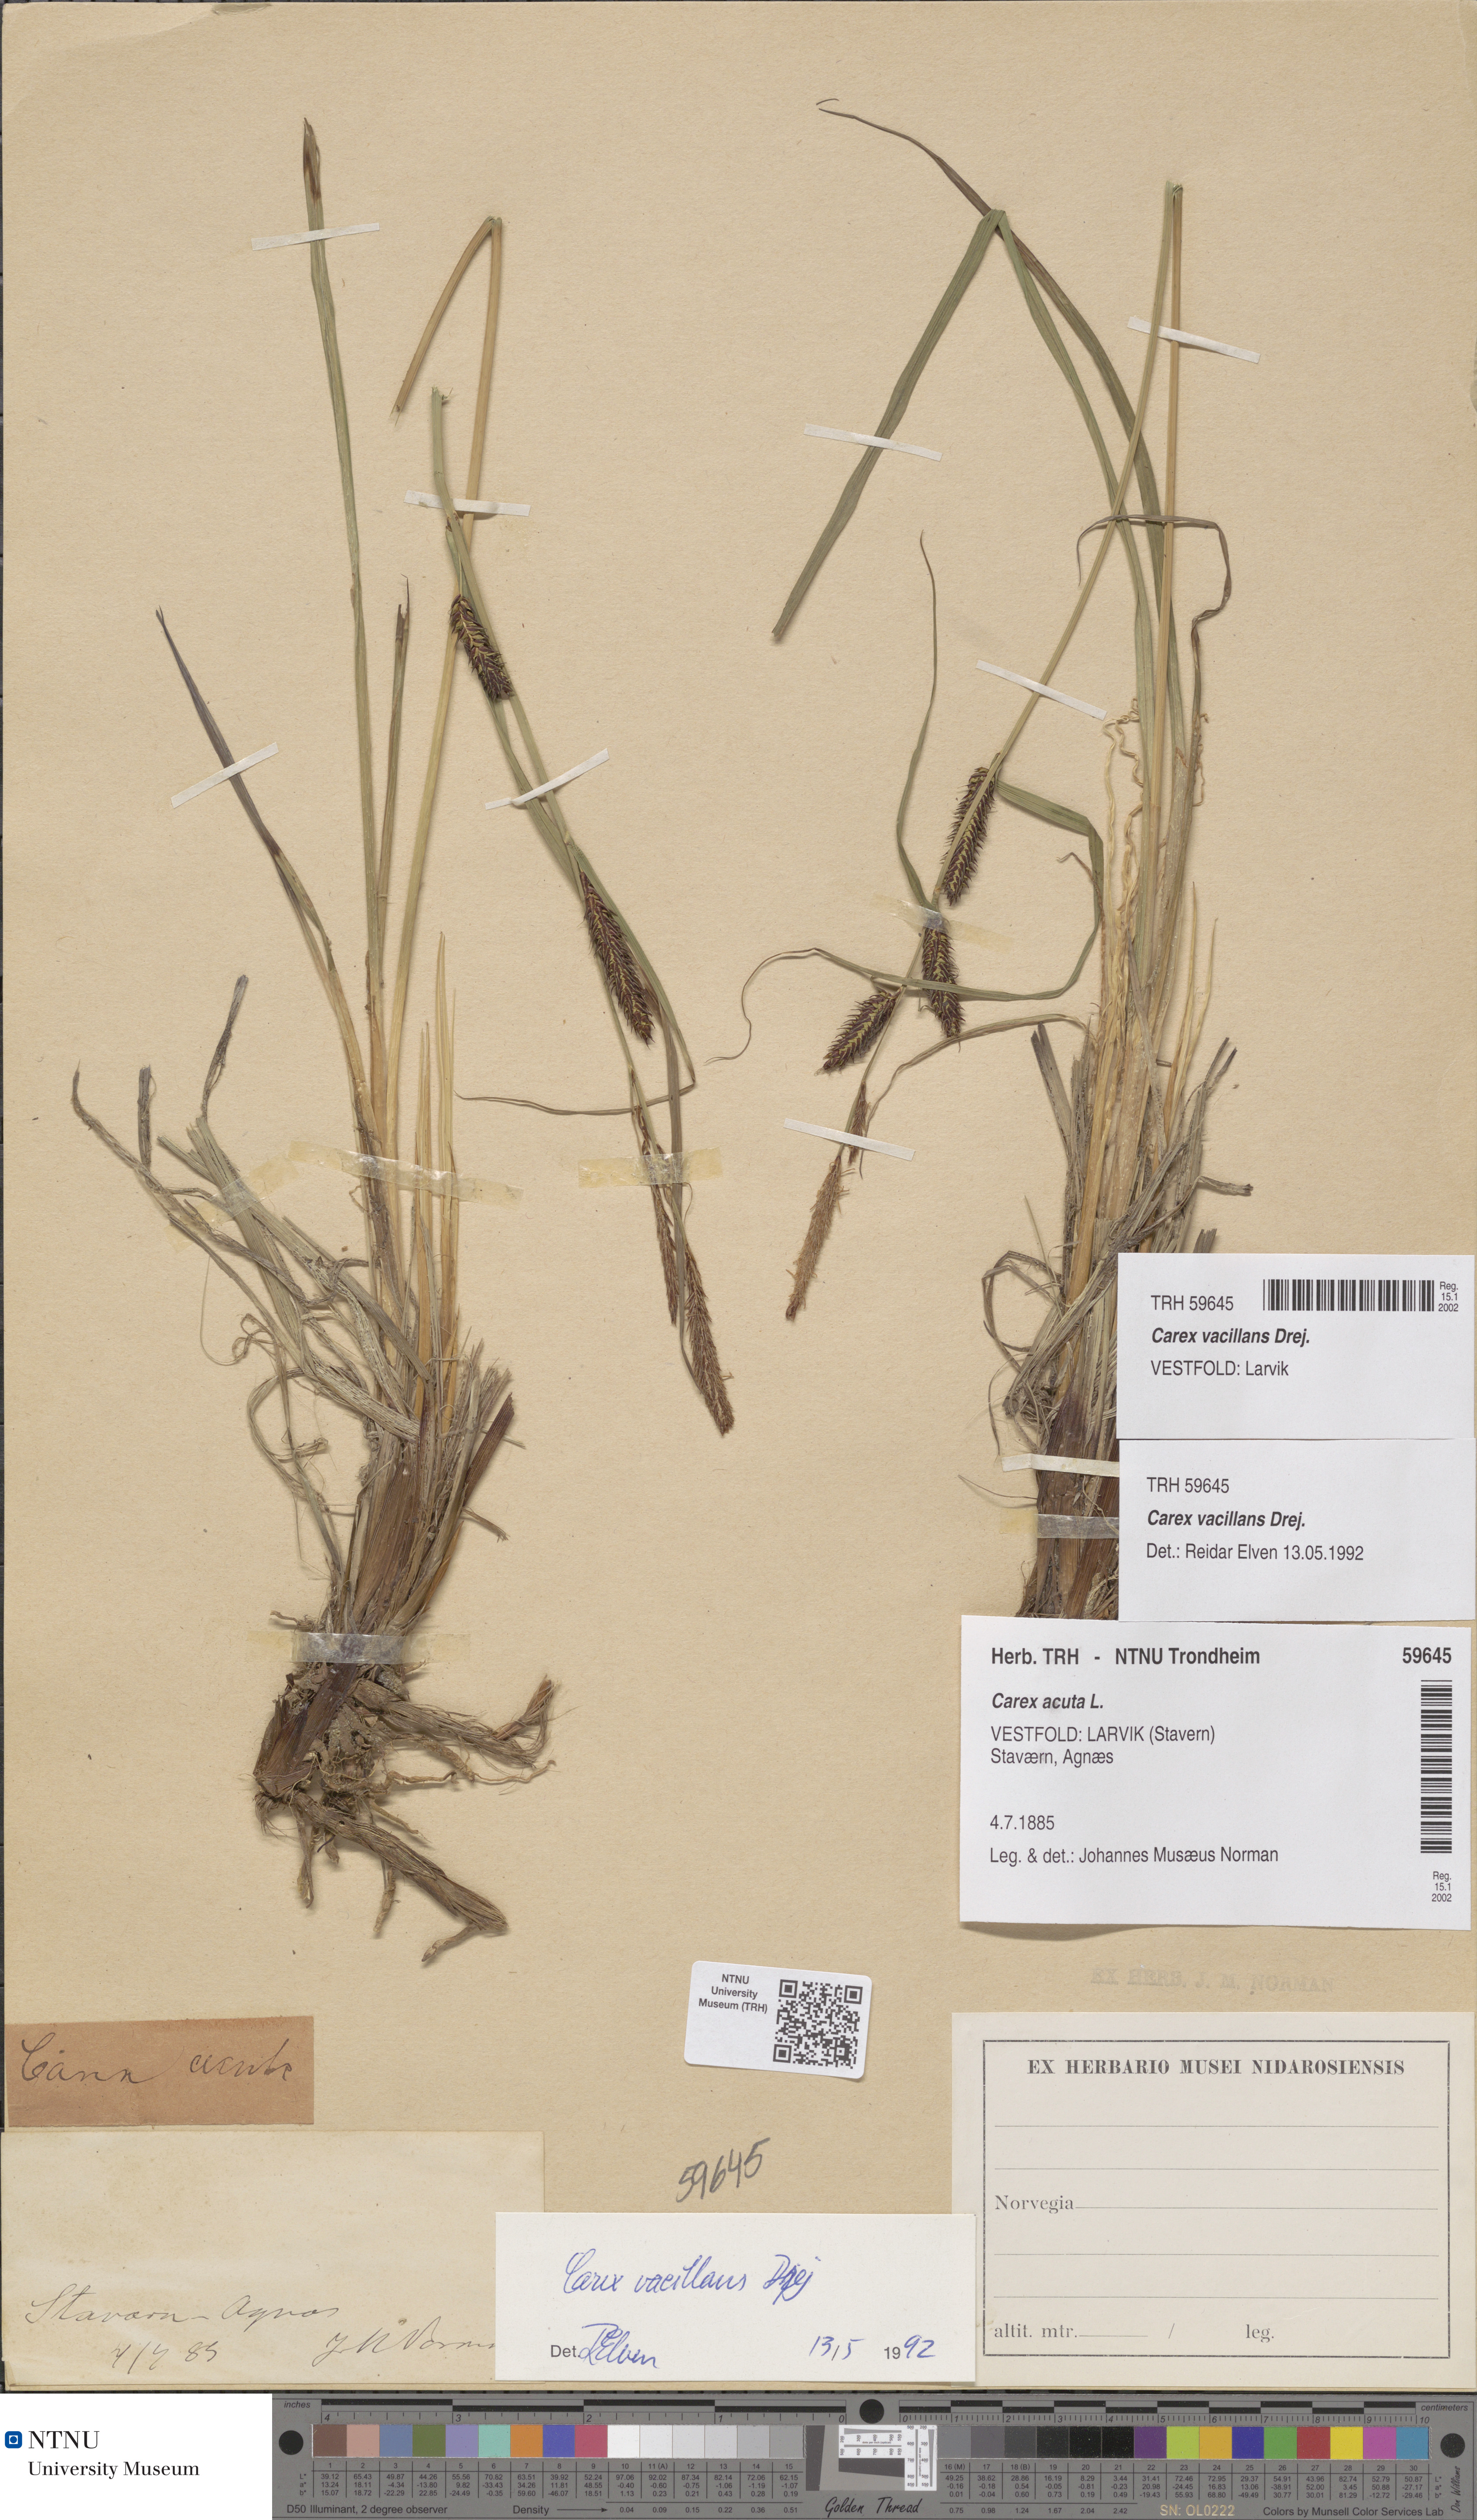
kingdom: Plantae
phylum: Tracheophyta
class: Liliopsida
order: Poales
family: Cyperaceae
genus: Carex
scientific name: Carex vacillans
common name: Sedge
